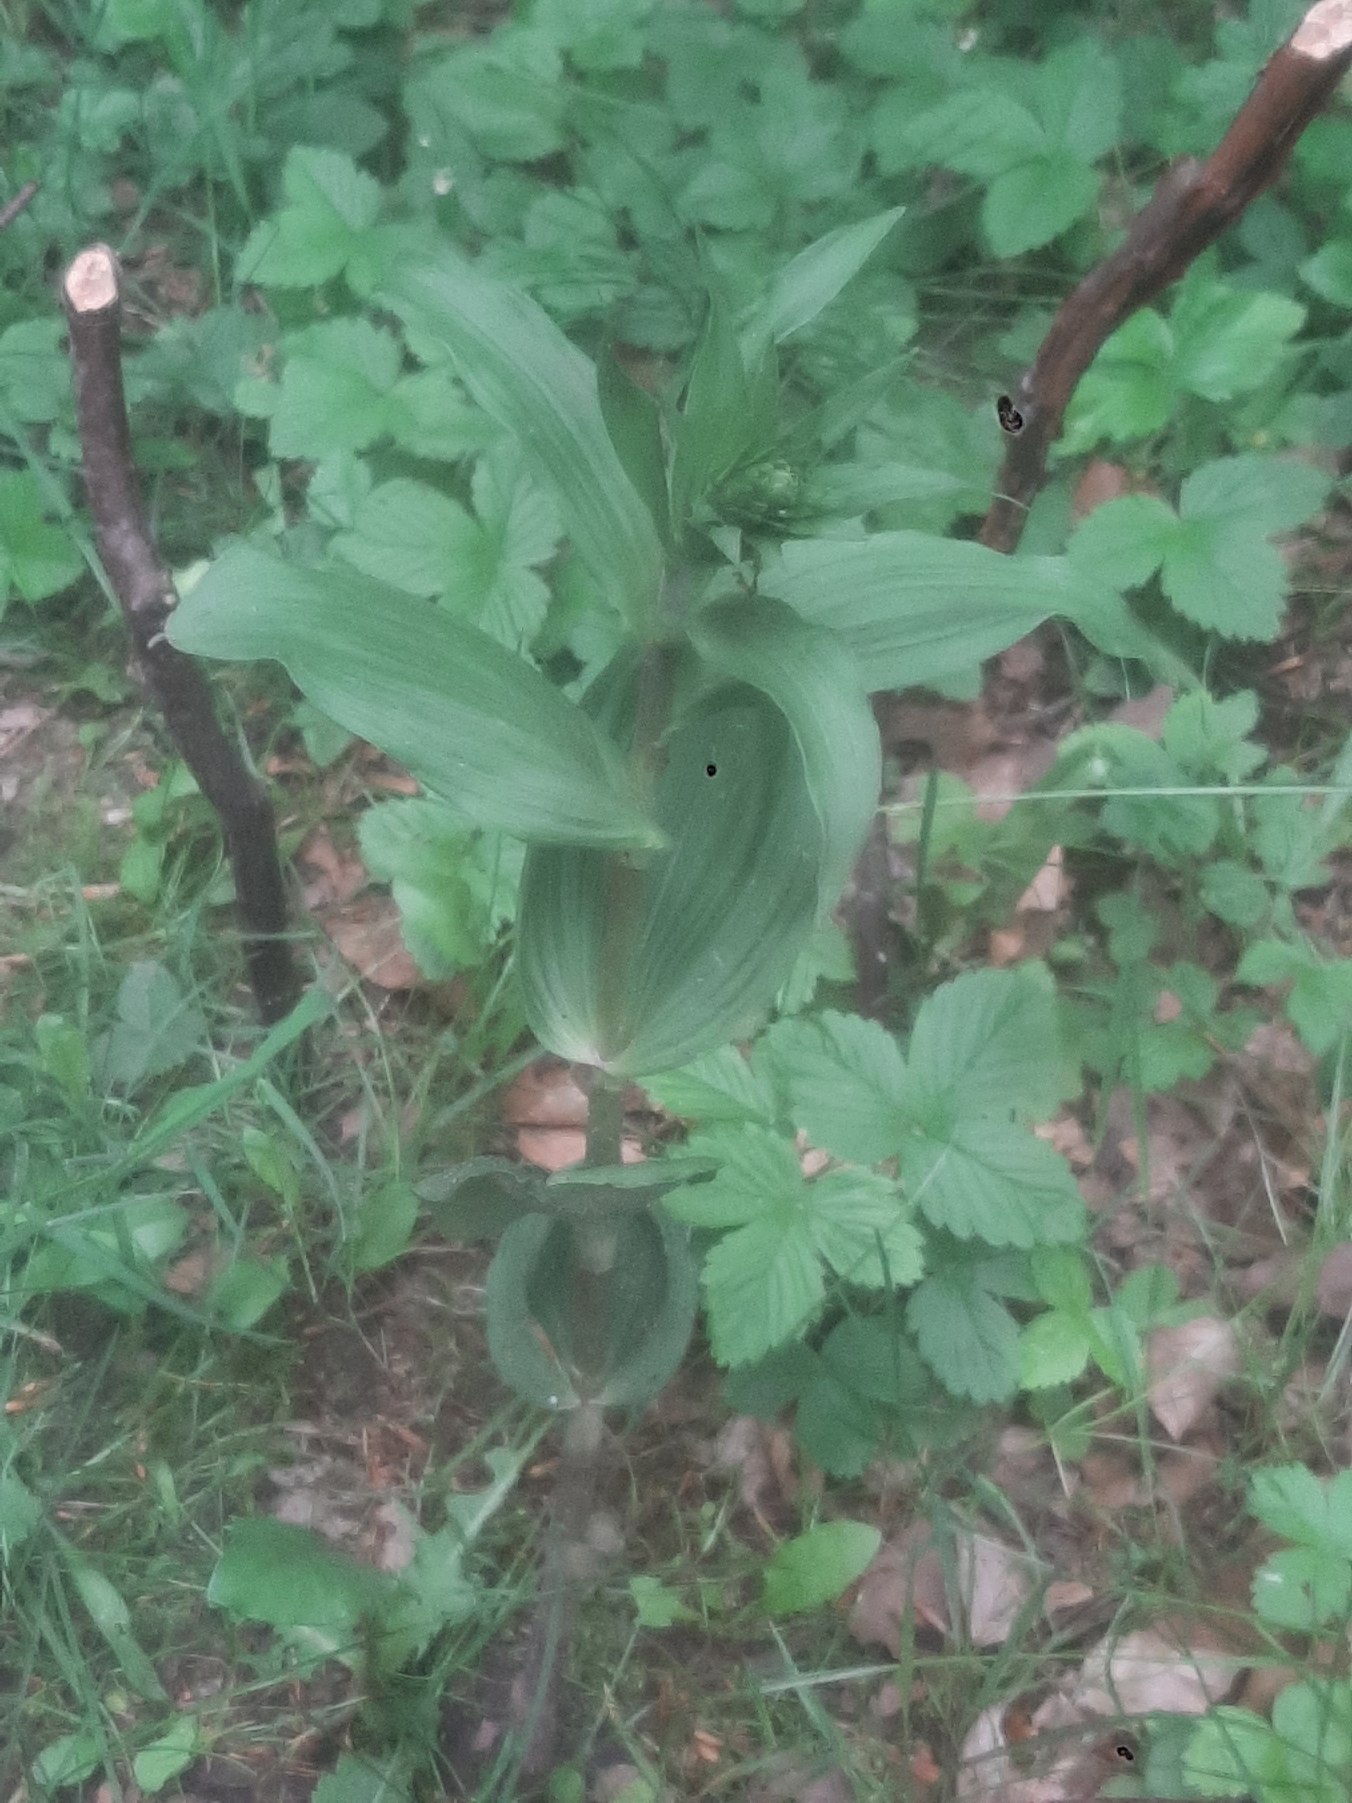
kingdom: Plantae
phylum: Tracheophyta
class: Liliopsida
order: Asparagales
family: Orchidaceae
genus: Epipactis
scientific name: Epipactis helleborine
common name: Skov-hullæbe
